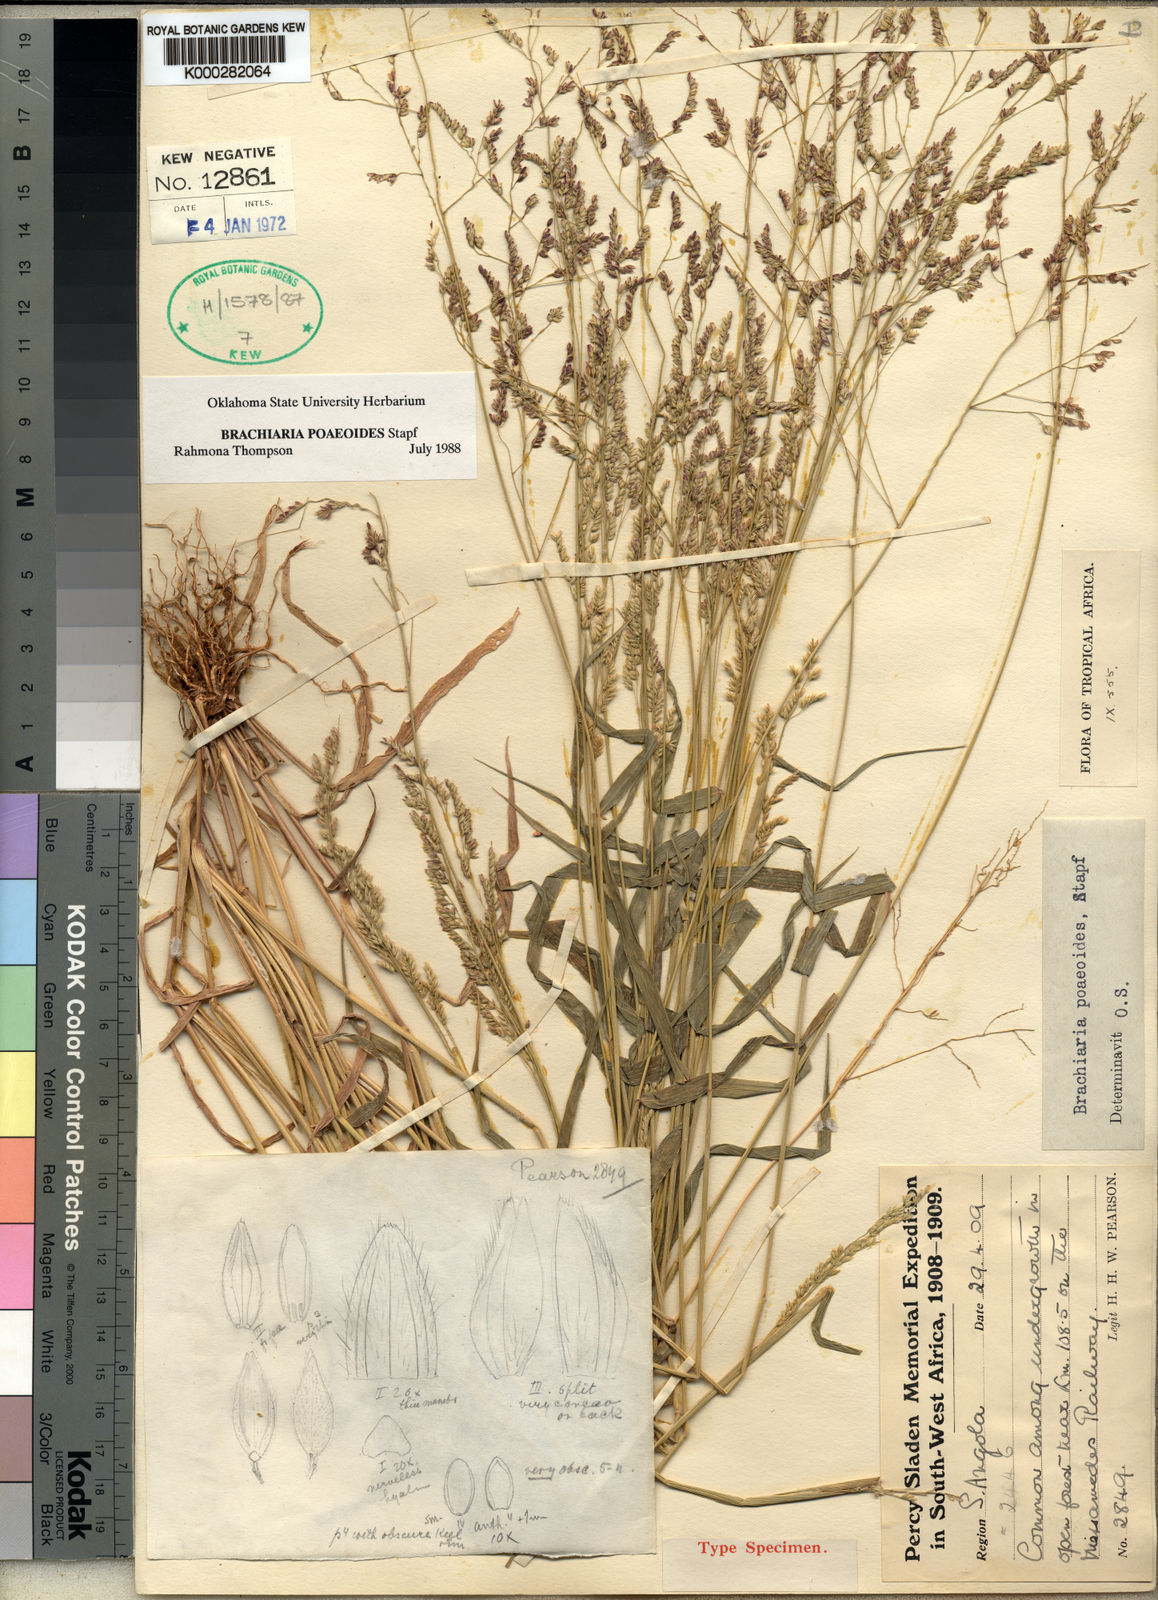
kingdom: Plantae
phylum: Tracheophyta
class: Liliopsida
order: Poales
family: Poaceae
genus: Moorochloa
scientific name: Moorochloa malacodes
